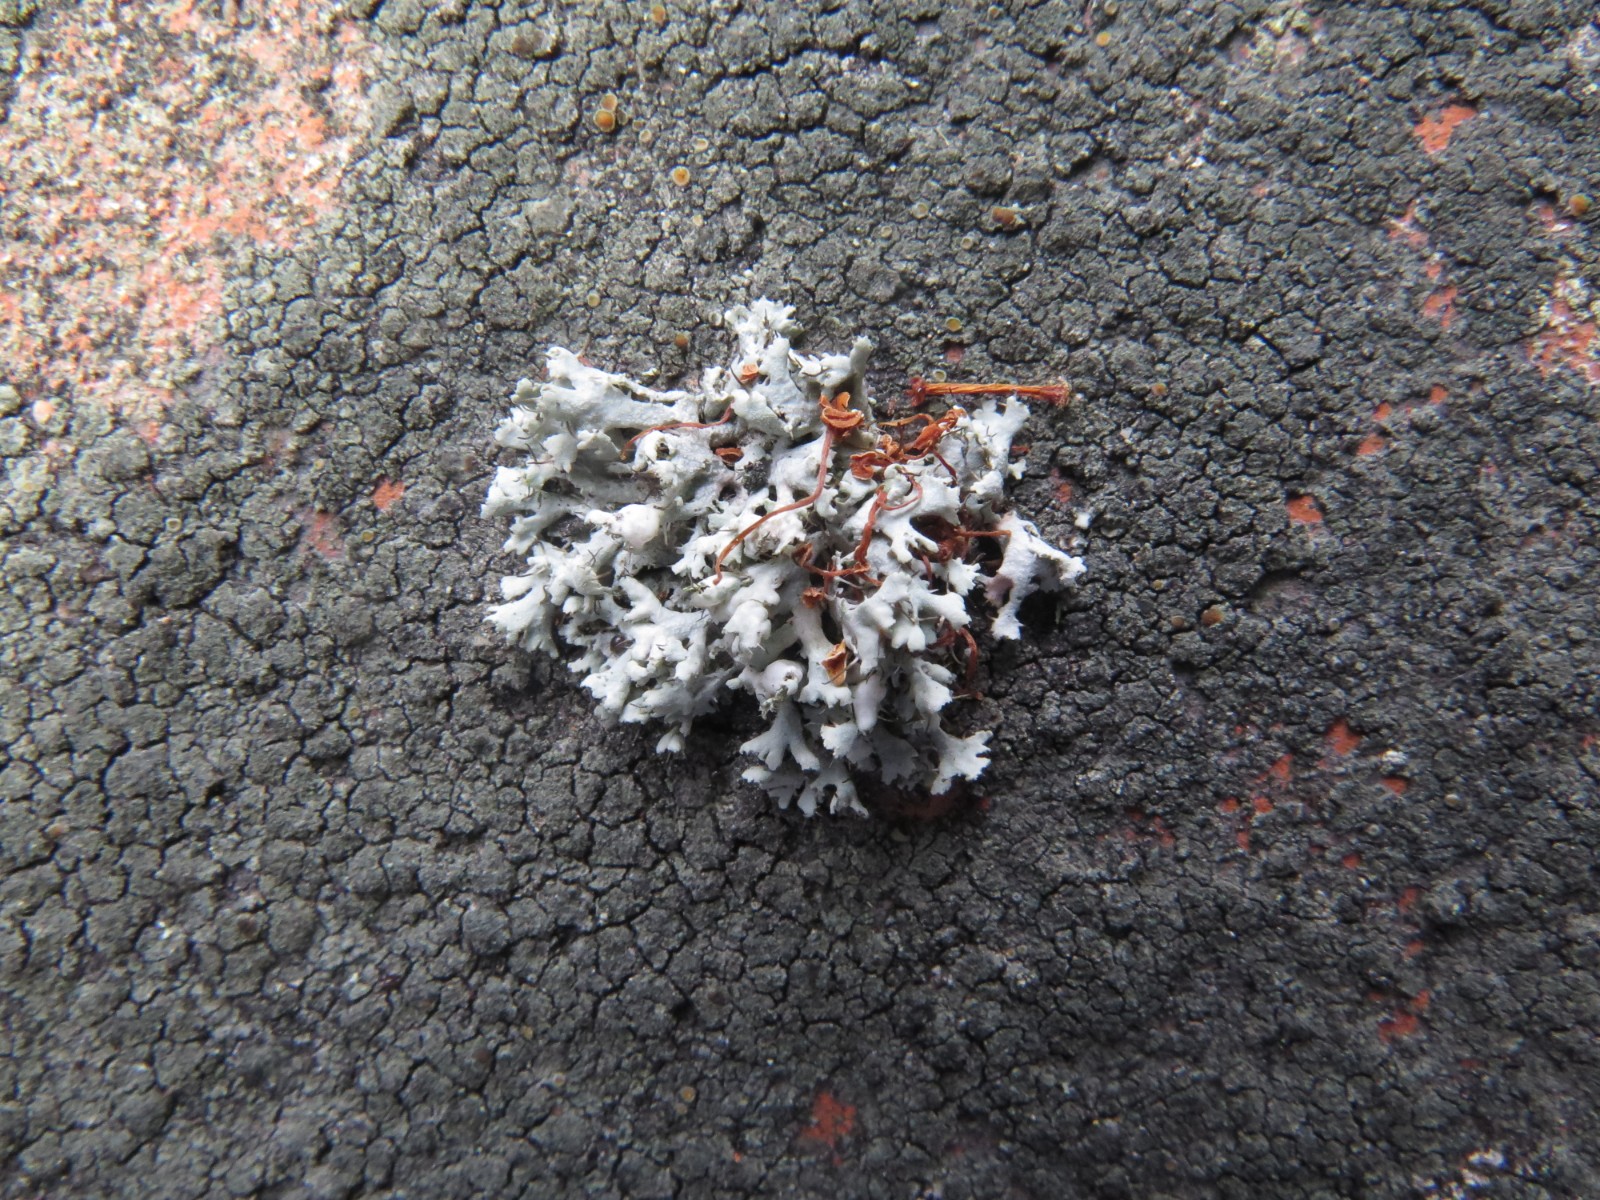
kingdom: Fungi
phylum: Ascomycota
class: Lecanoromycetes
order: Caliciales
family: Physciaceae
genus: Physcia
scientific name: Physcia tenella
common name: spæd rosetlav
